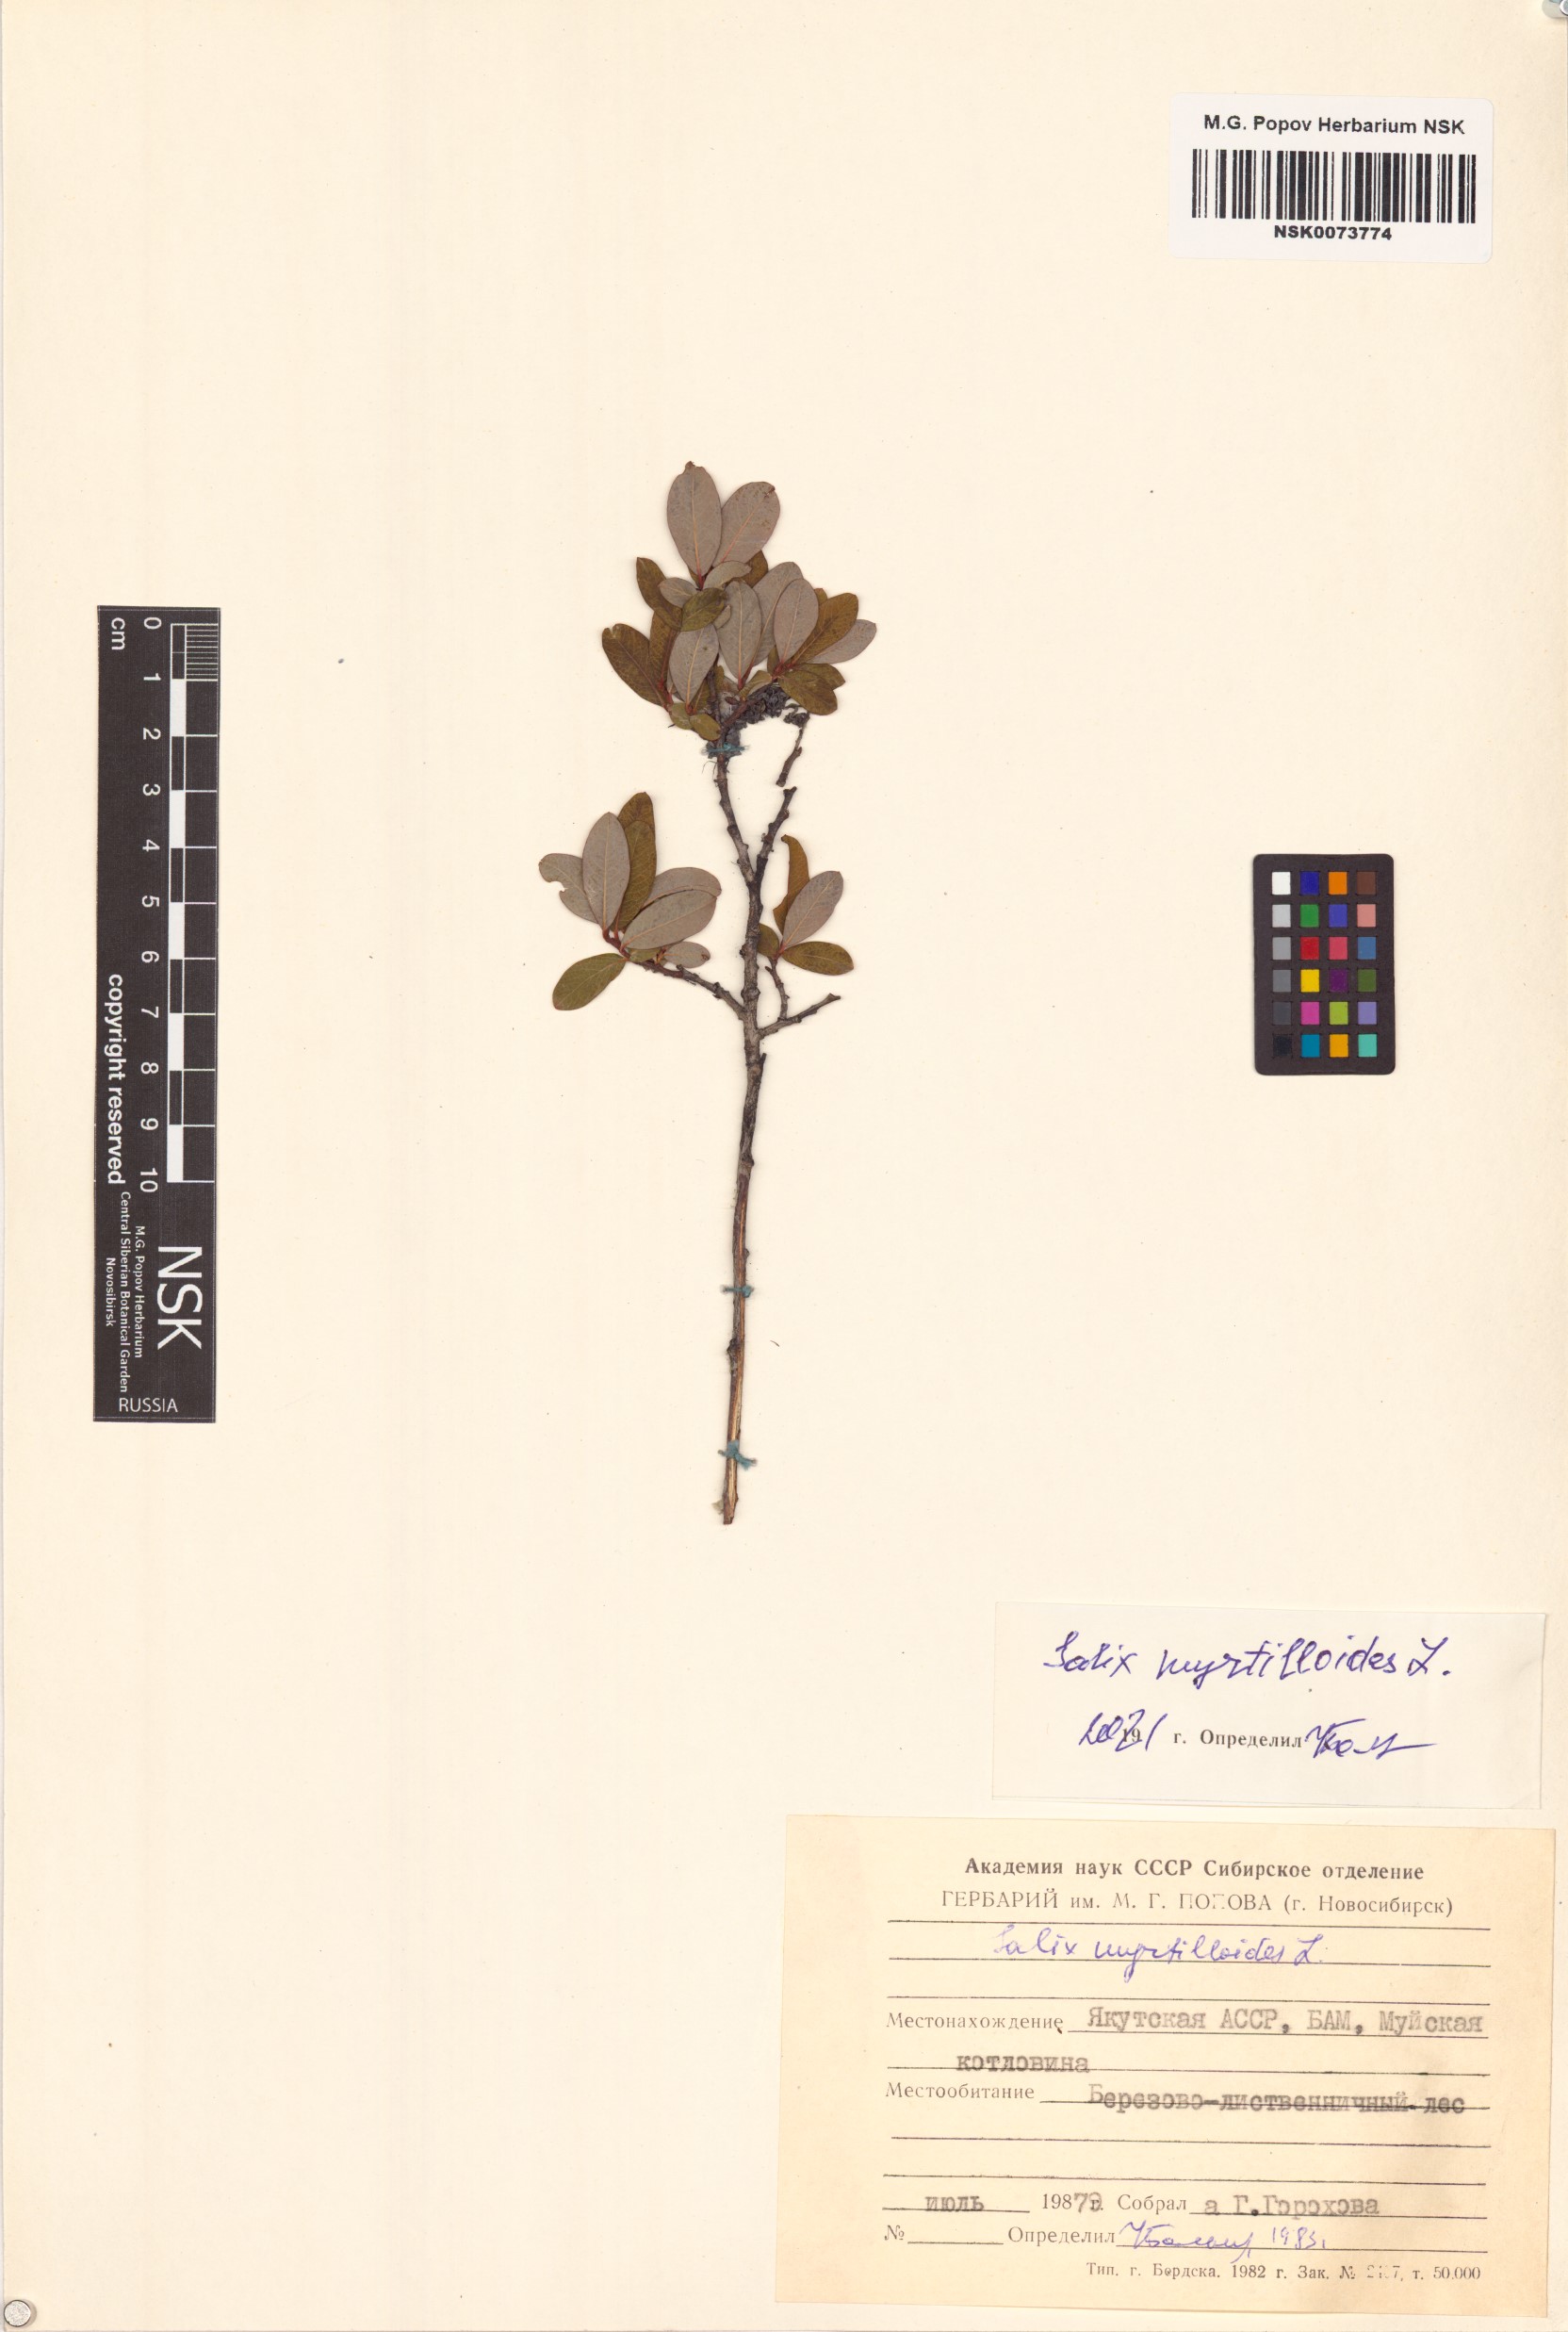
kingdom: Plantae
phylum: Tracheophyta
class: Magnoliopsida
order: Malpighiales
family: Salicaceae
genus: Salix
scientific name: Salix myrtilloides
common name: Myrtle-leaved willow
